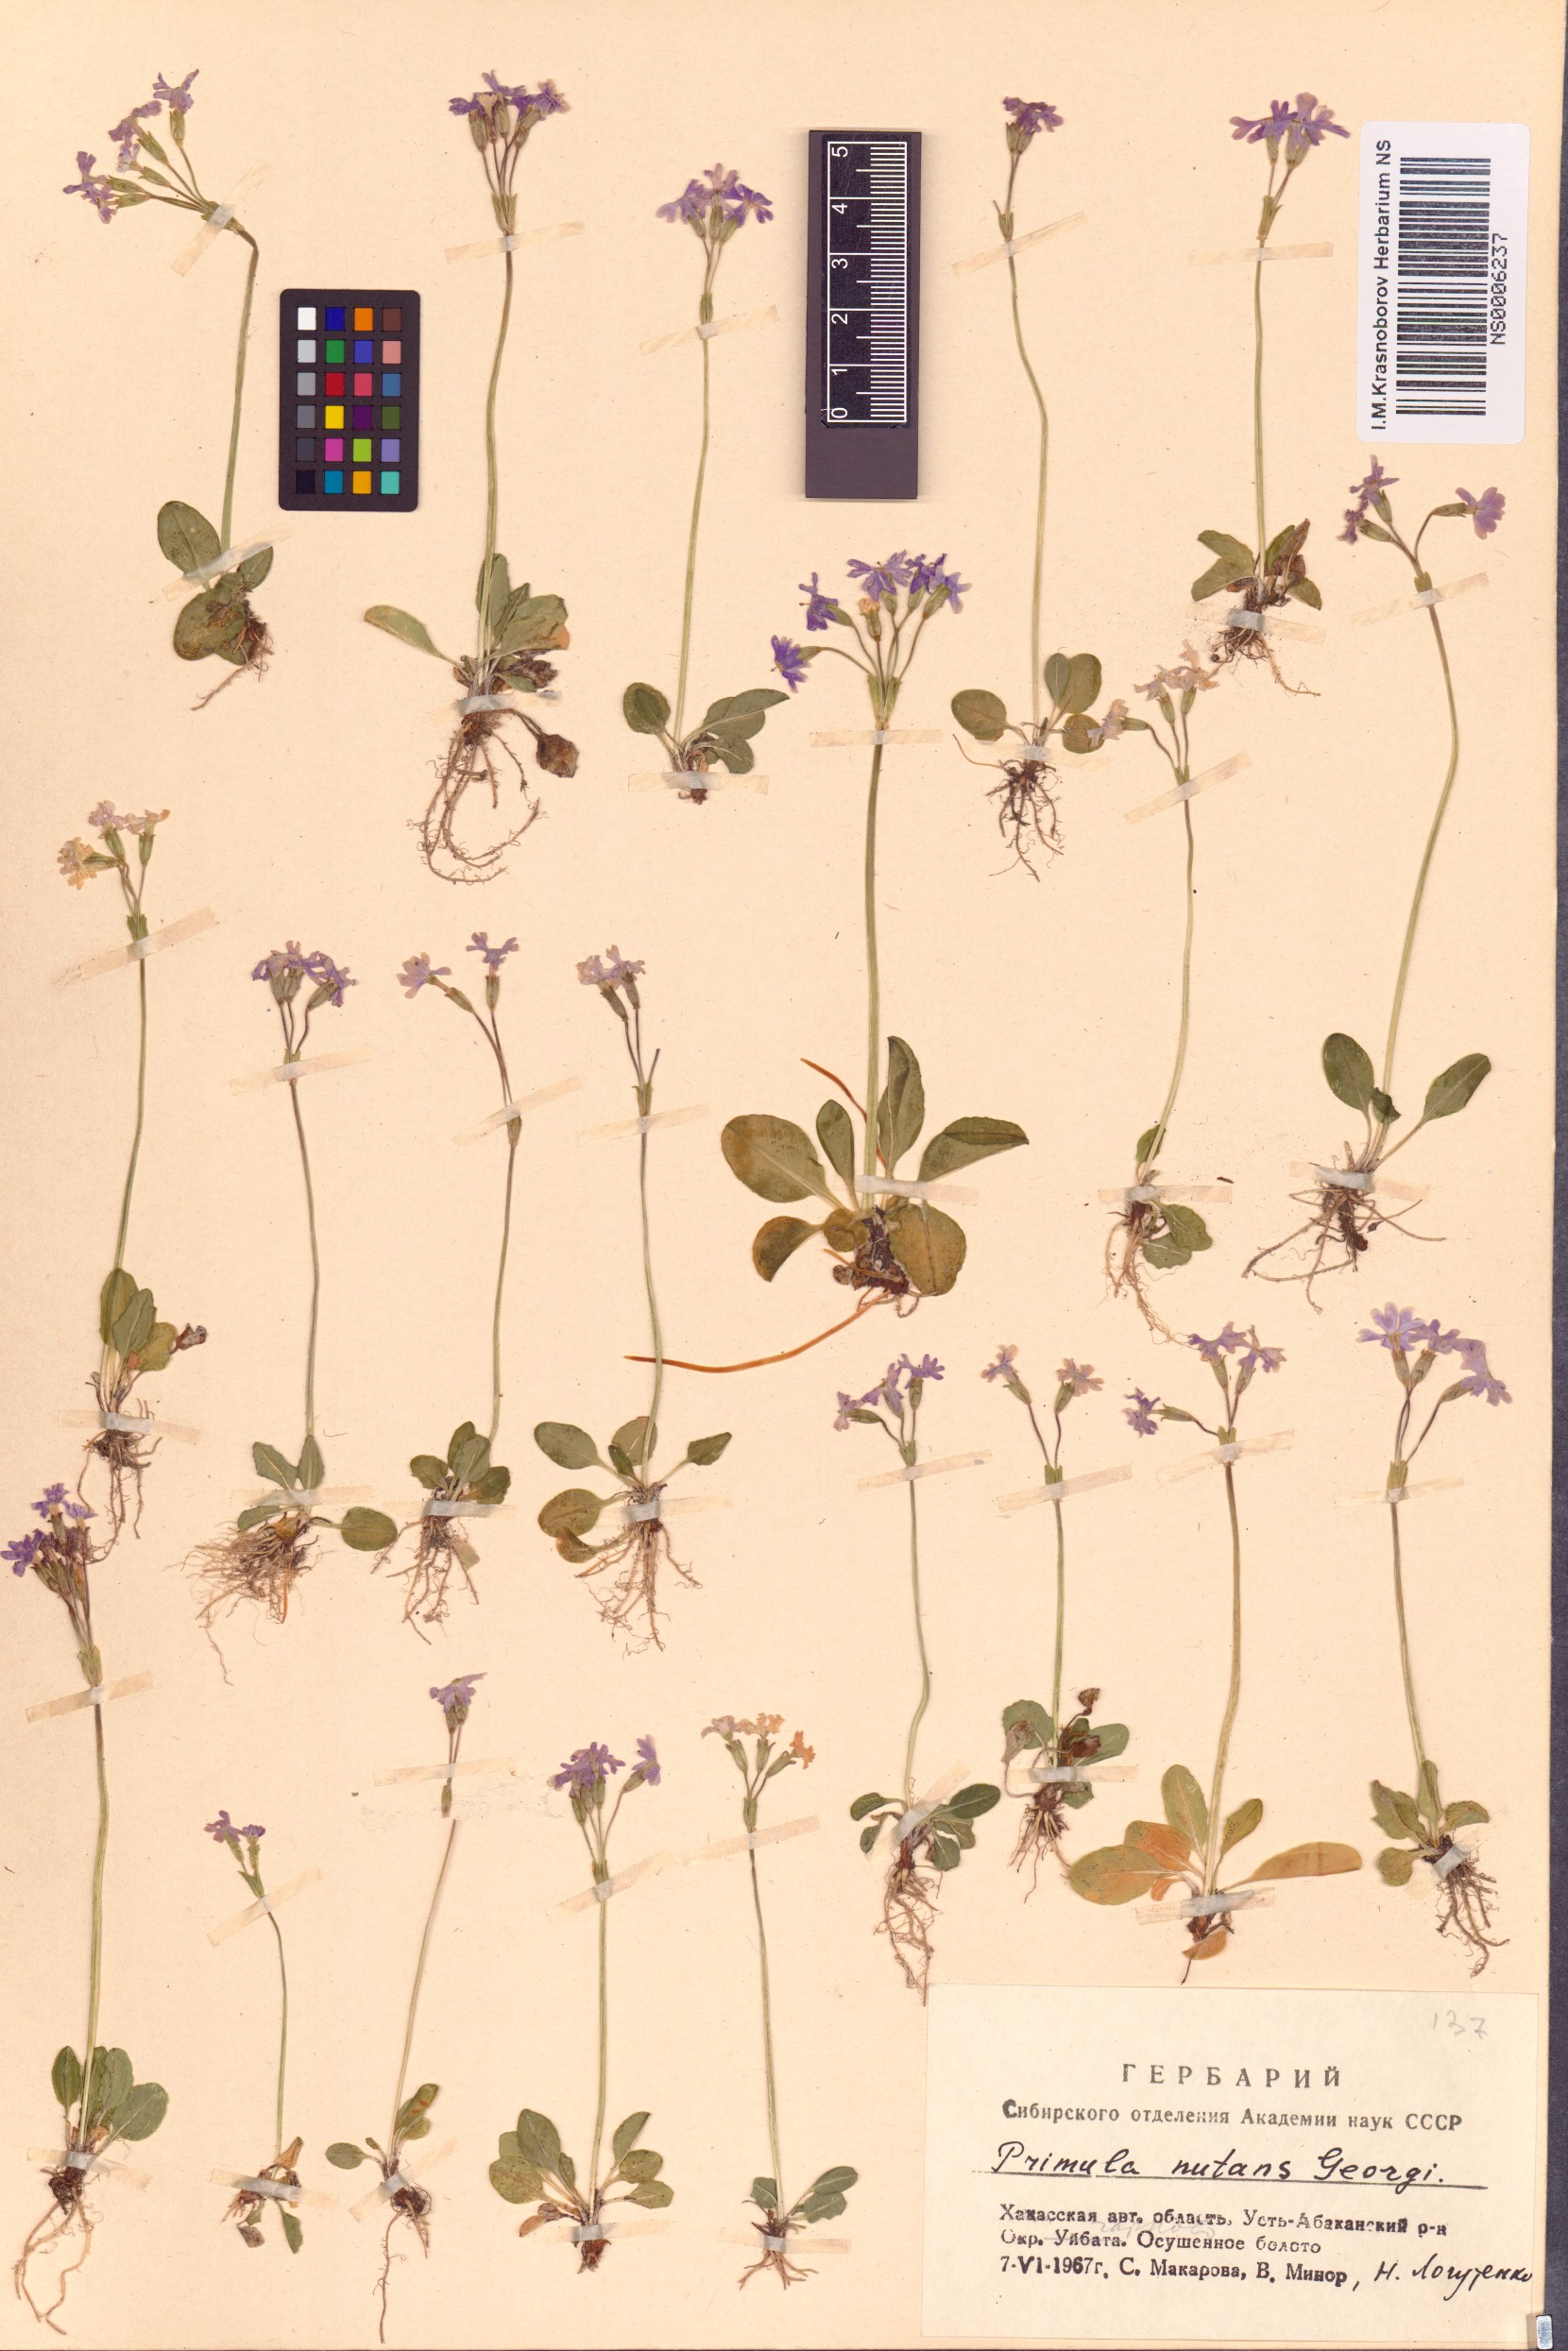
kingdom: Plantae
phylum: Tracheophyta
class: Magnoliopsida
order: Ericales
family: Primulaceae
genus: Primula
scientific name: Primula nutans
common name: Siberian primrose
